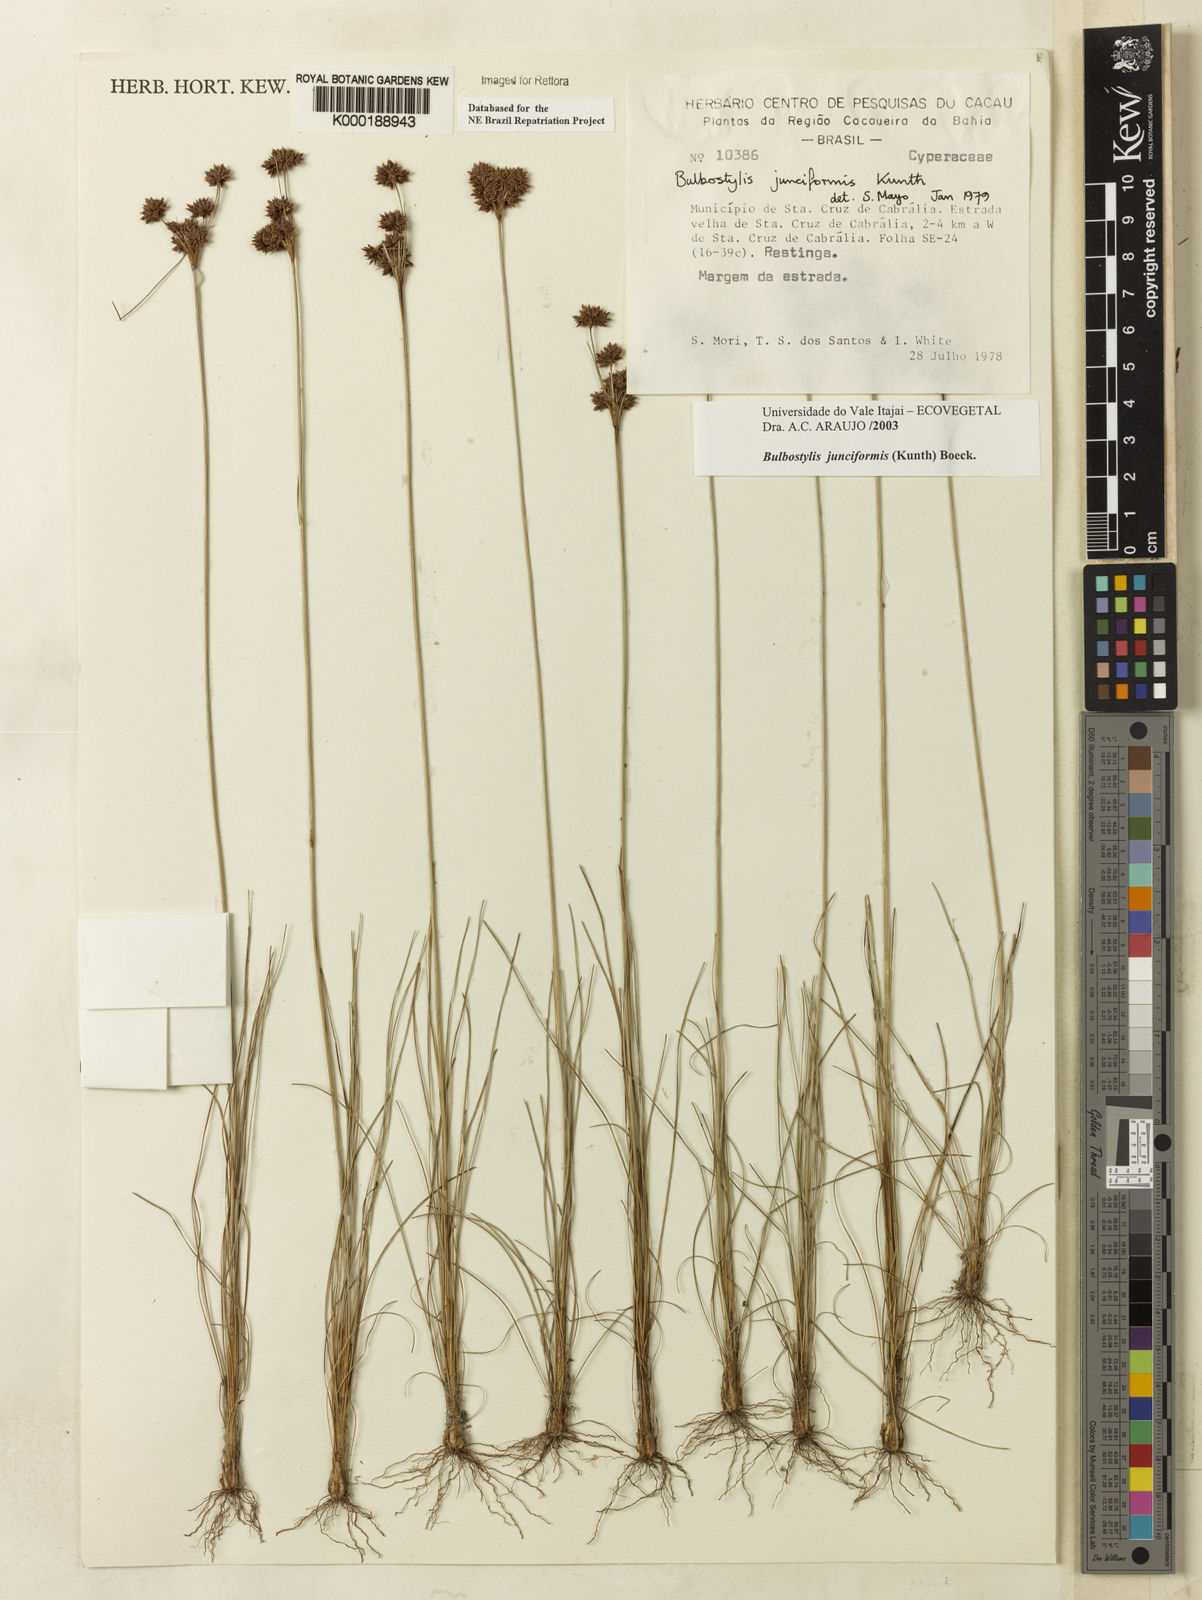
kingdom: Plantae
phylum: Tracheophyta
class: Liliopsida
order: Poales
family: Cyperaceae
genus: Bulbostylis
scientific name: Bulbostylis
